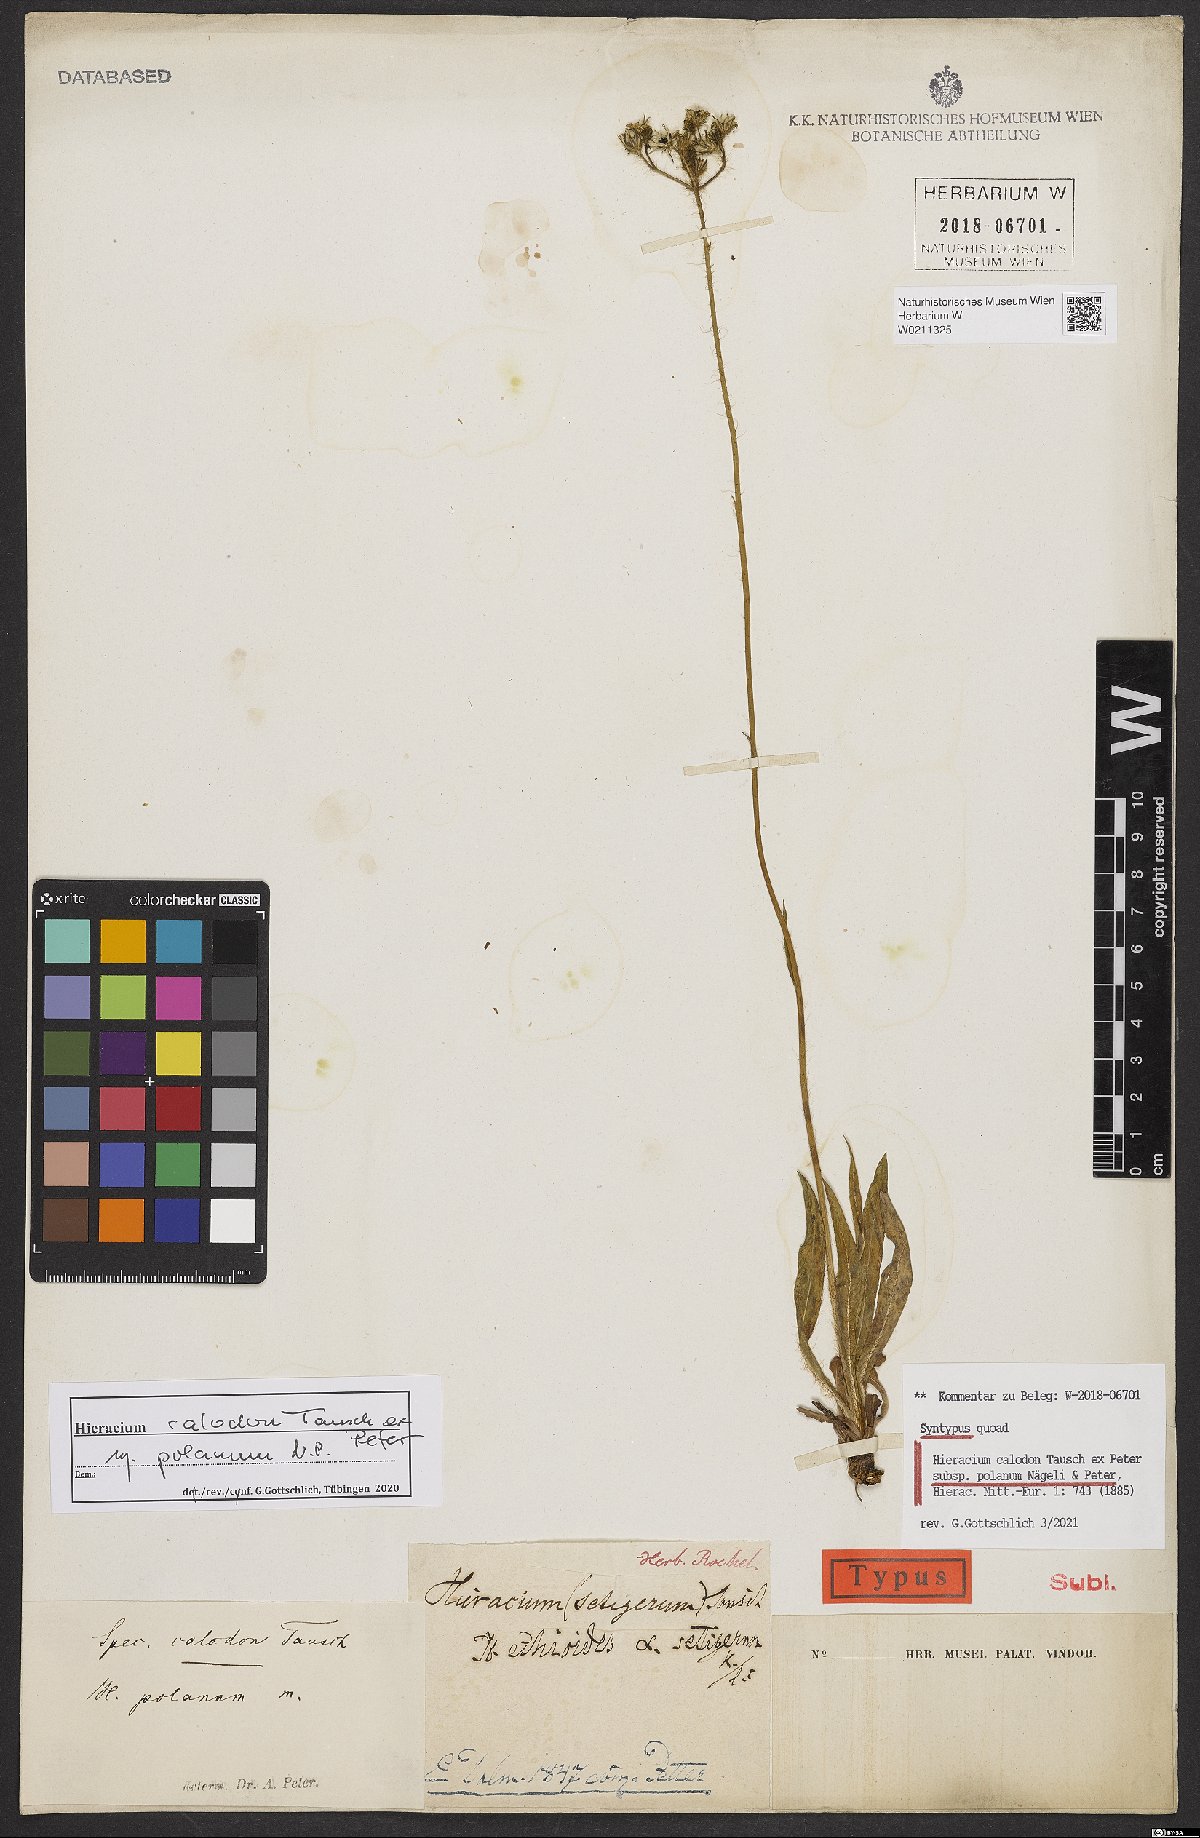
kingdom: Plantae
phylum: Tracheophyta
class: Magnoliopsida
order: Asterales
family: Asteraceae
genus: Pilosella
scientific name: Pilosella calodon
